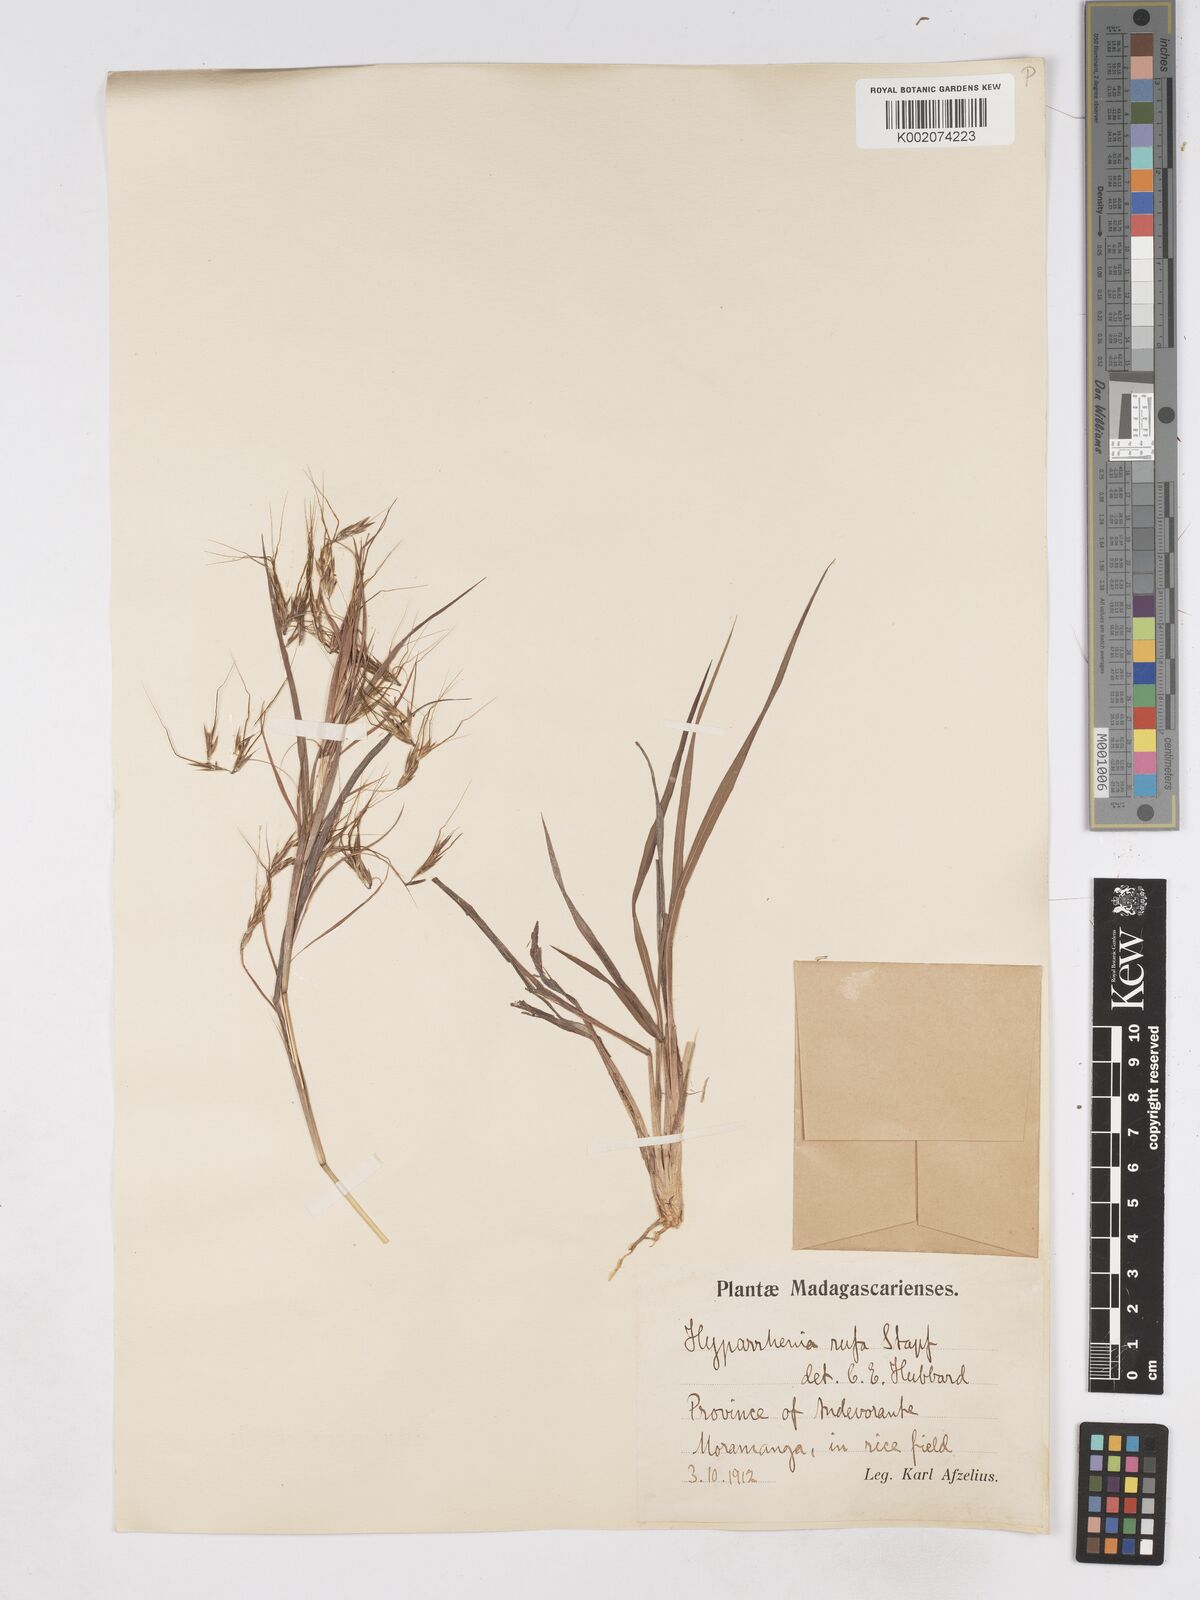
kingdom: Plantae
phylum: Tracheophyta
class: Liliopsida
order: Poales
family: Poaceae
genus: Hyparrhenia
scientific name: Hyparrhenia rufa
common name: Jaraguagrass
